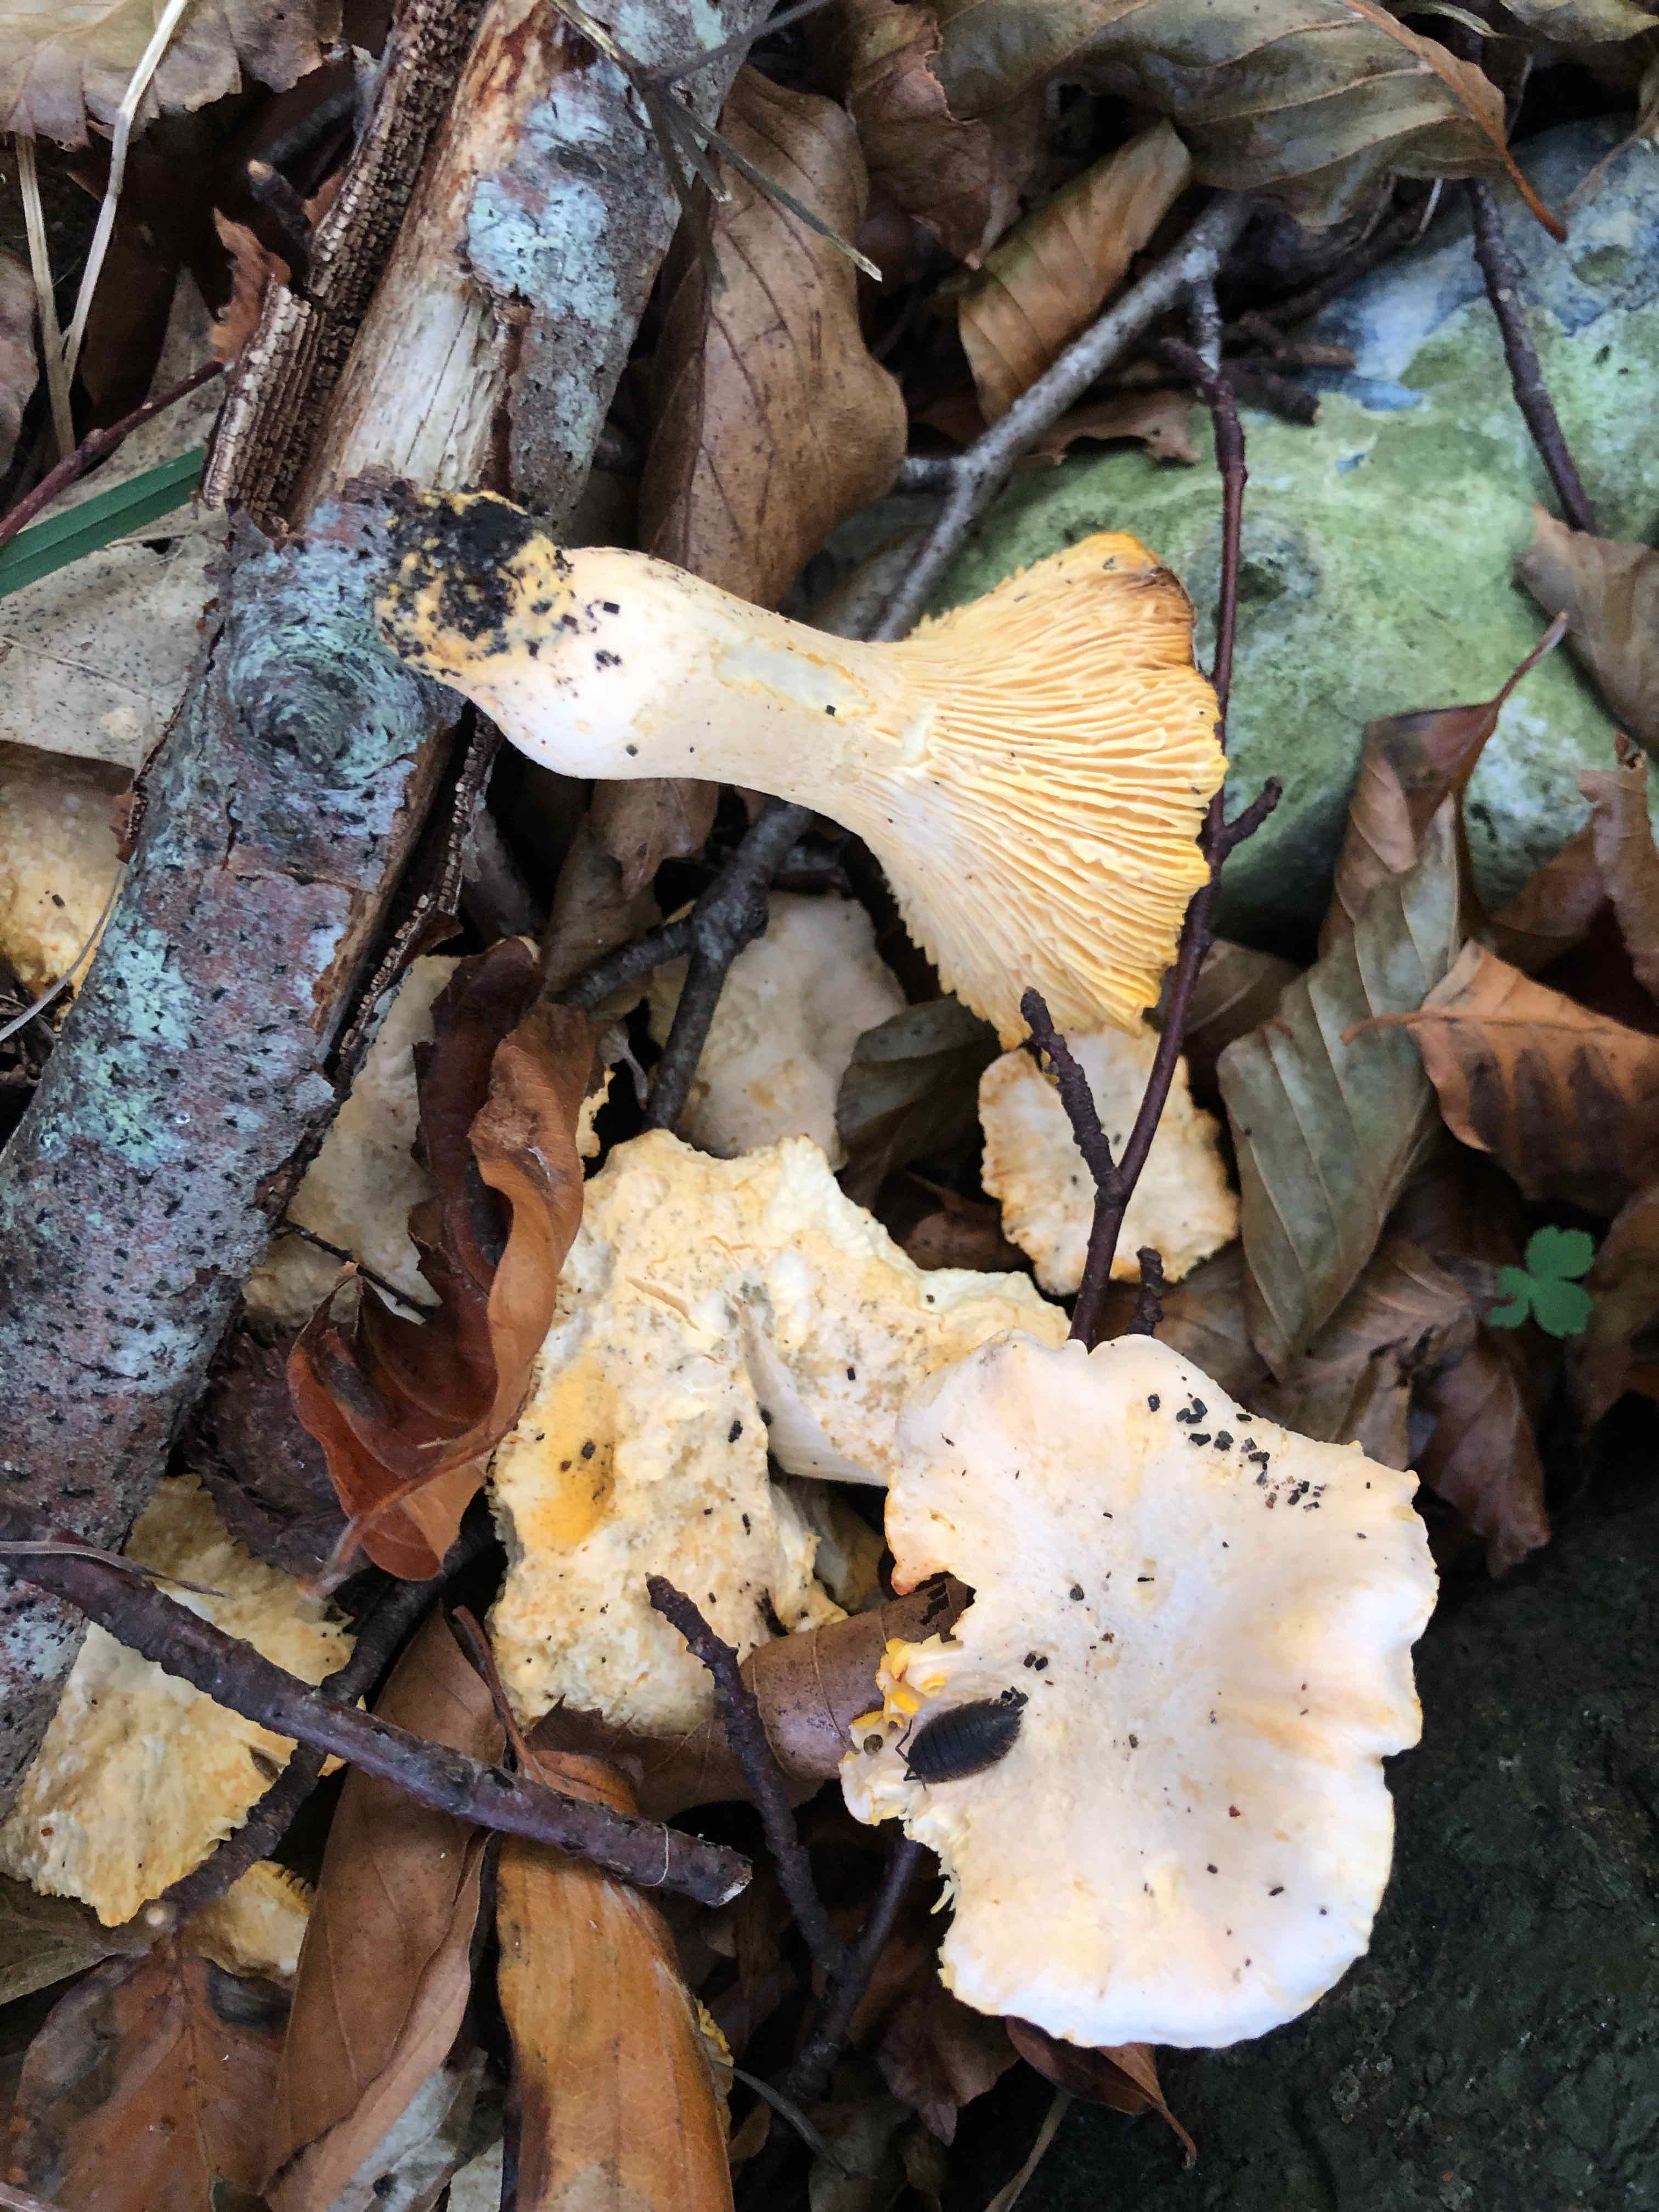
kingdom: Fungi
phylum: Basidiomycota
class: Agaricomycetes
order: Cantharellales
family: Hydnaceae
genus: Cantharellus
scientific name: Cantharellus pallens
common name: bleg kantarel
